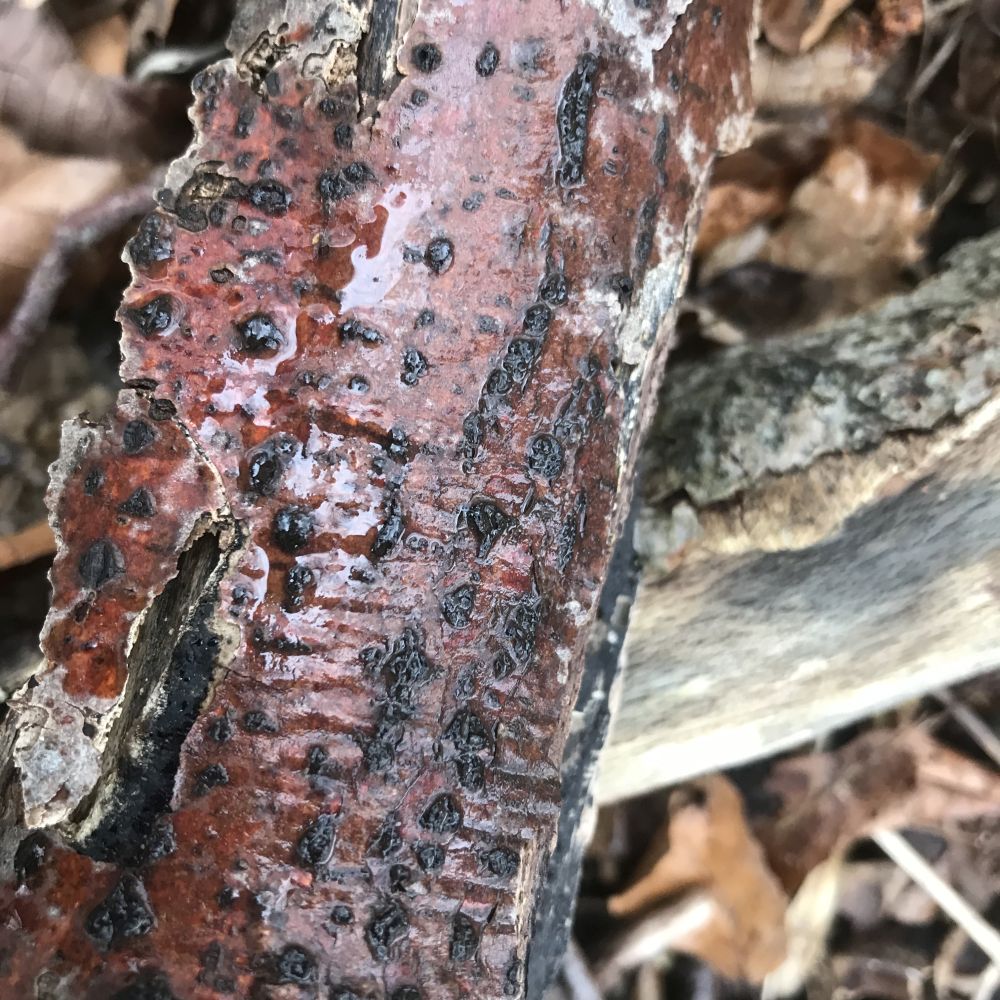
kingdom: Fungi
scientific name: Fungi
